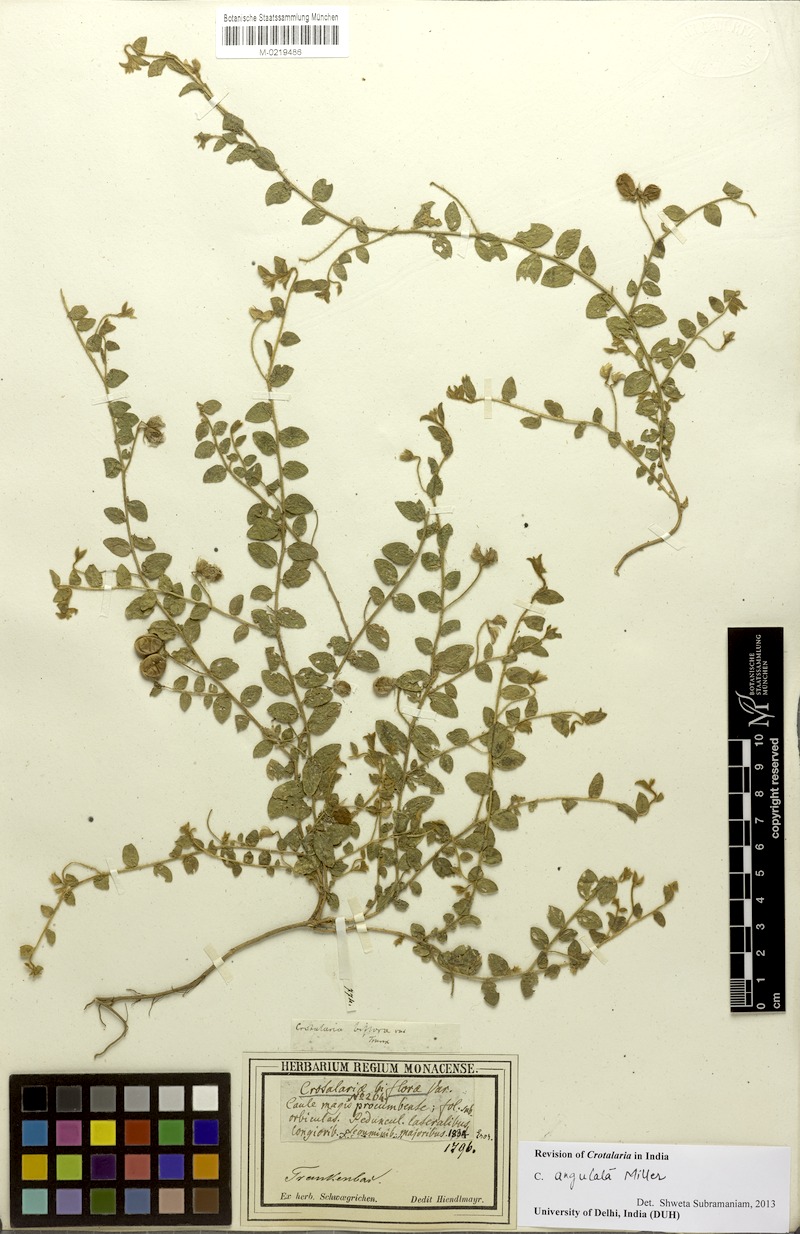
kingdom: Plantae
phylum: Tracheophyta
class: Magnoliopsida
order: Fabales
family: Fabaceae
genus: Crotalaria
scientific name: Crotalaria angulata
